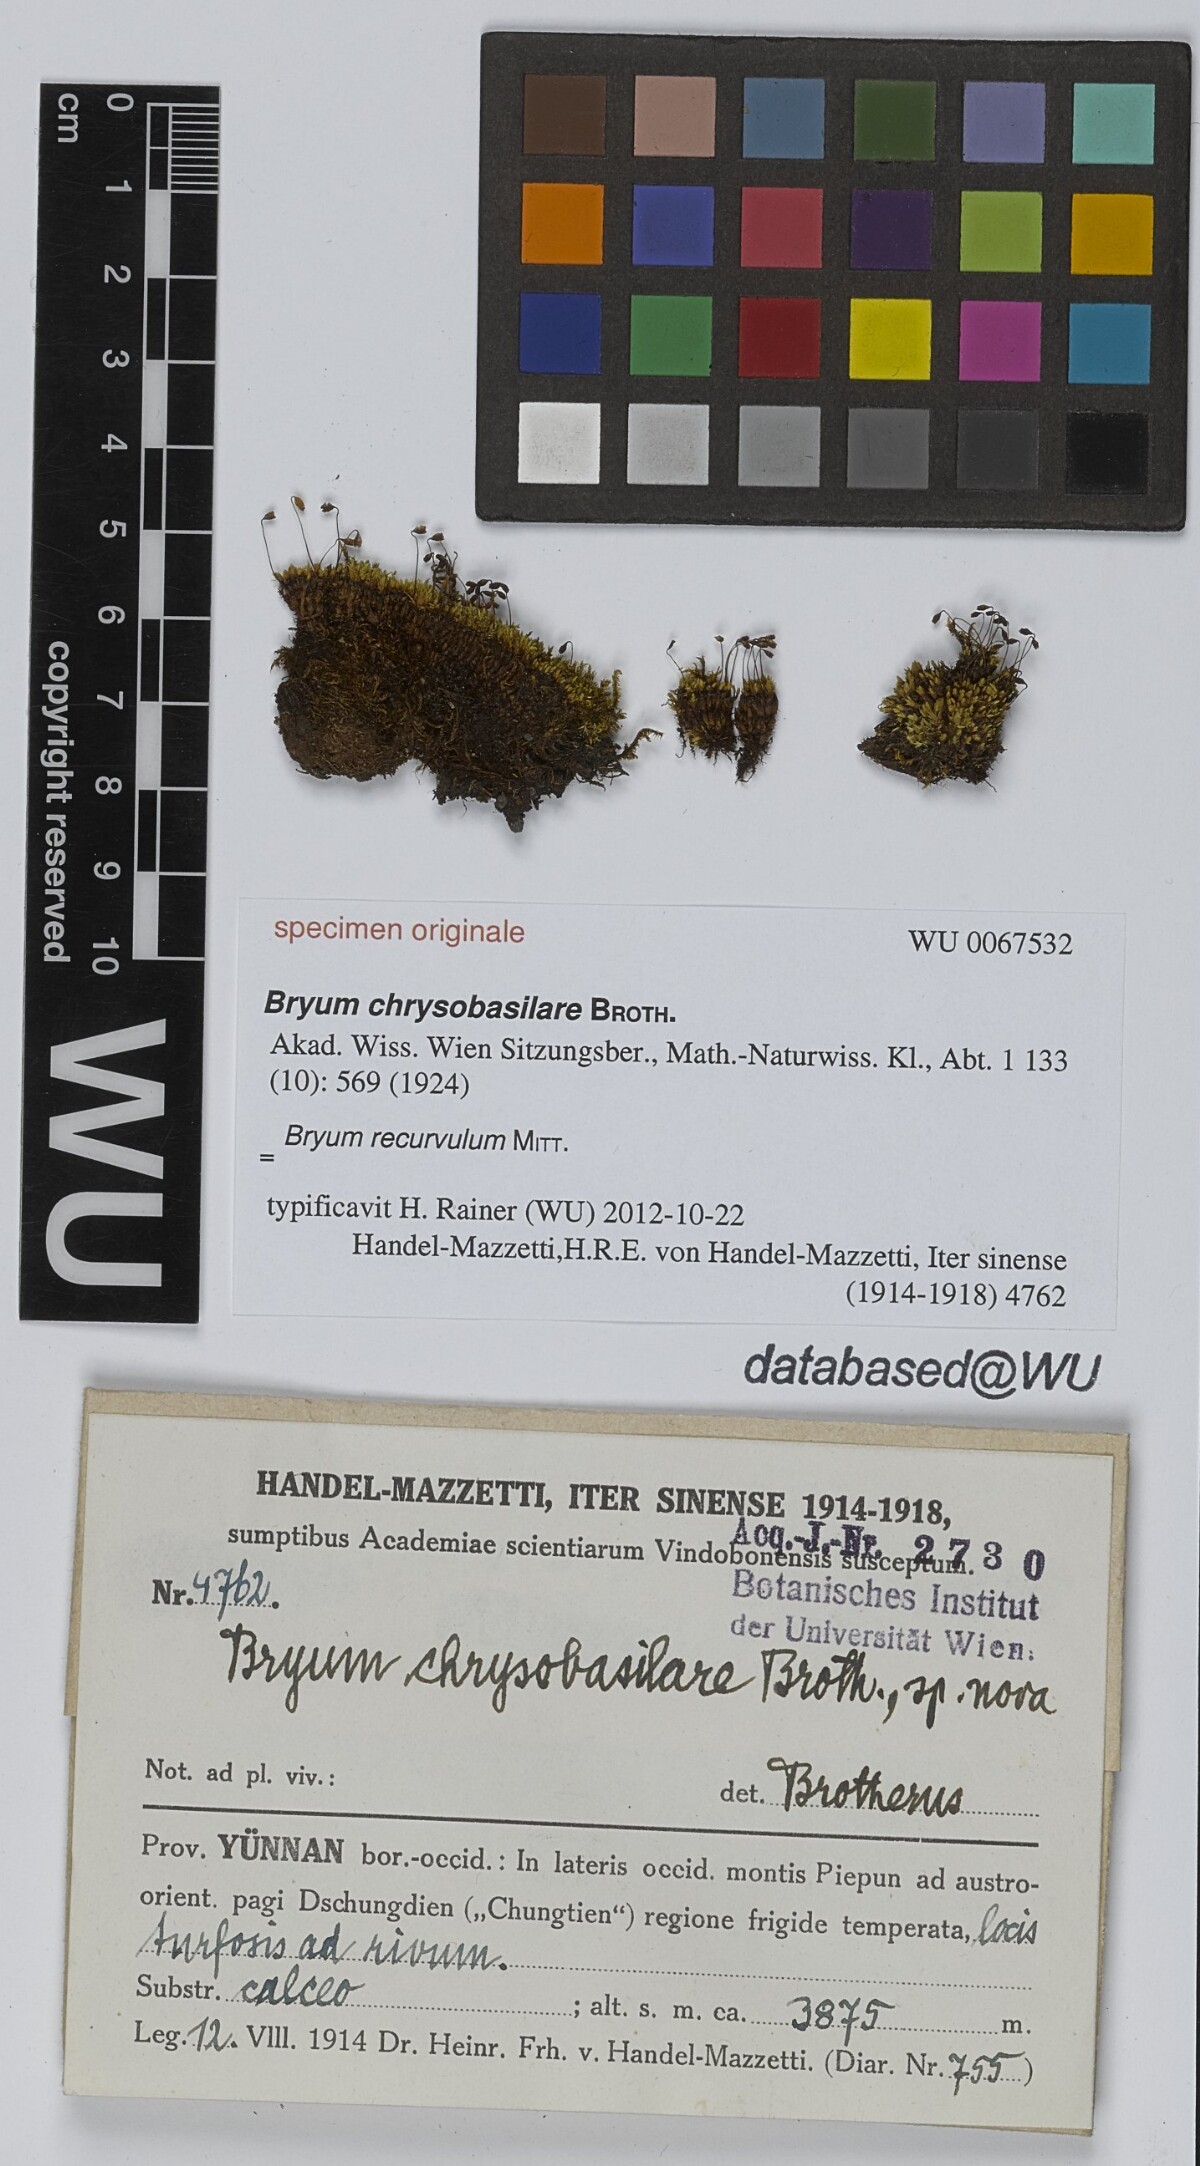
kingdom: Plantae
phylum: Bryophyta
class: Bryopsida
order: Bryales
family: Bryaceae
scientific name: Bryaceae
